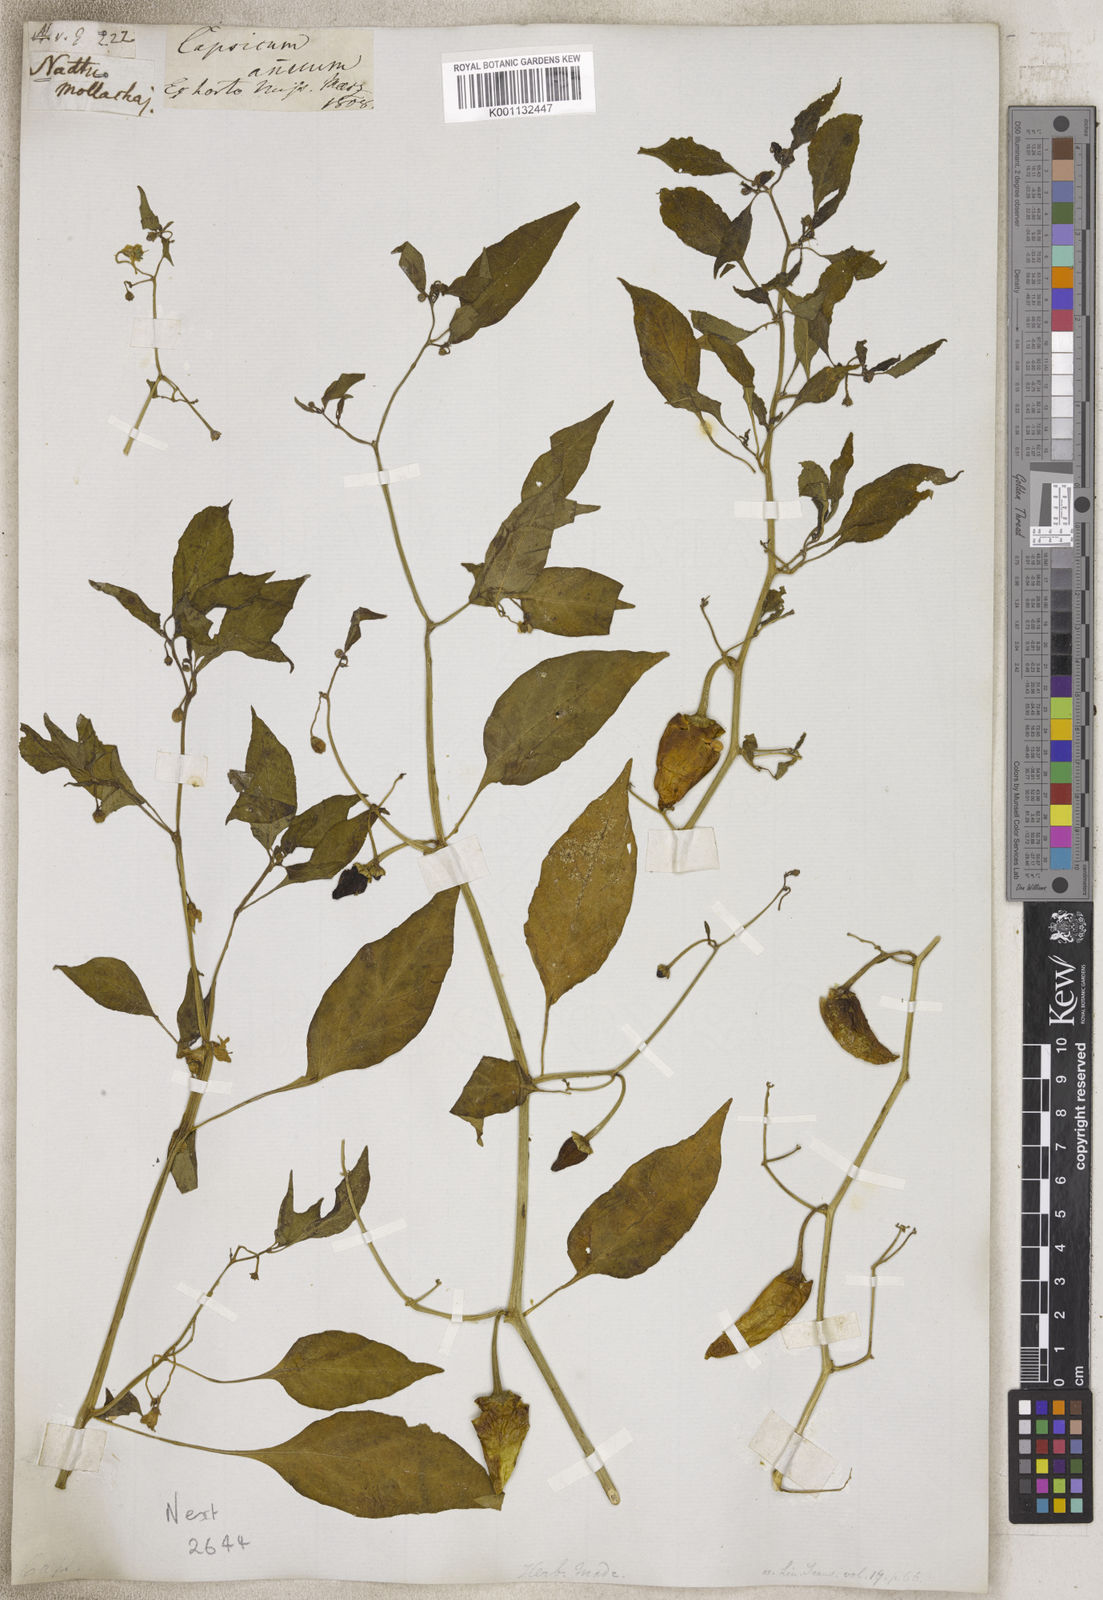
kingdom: Plantae
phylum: Tracheophyta
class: Magnoliopsida
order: Solanales
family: Solanaceae
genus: Capsicum
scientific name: Capsicum
